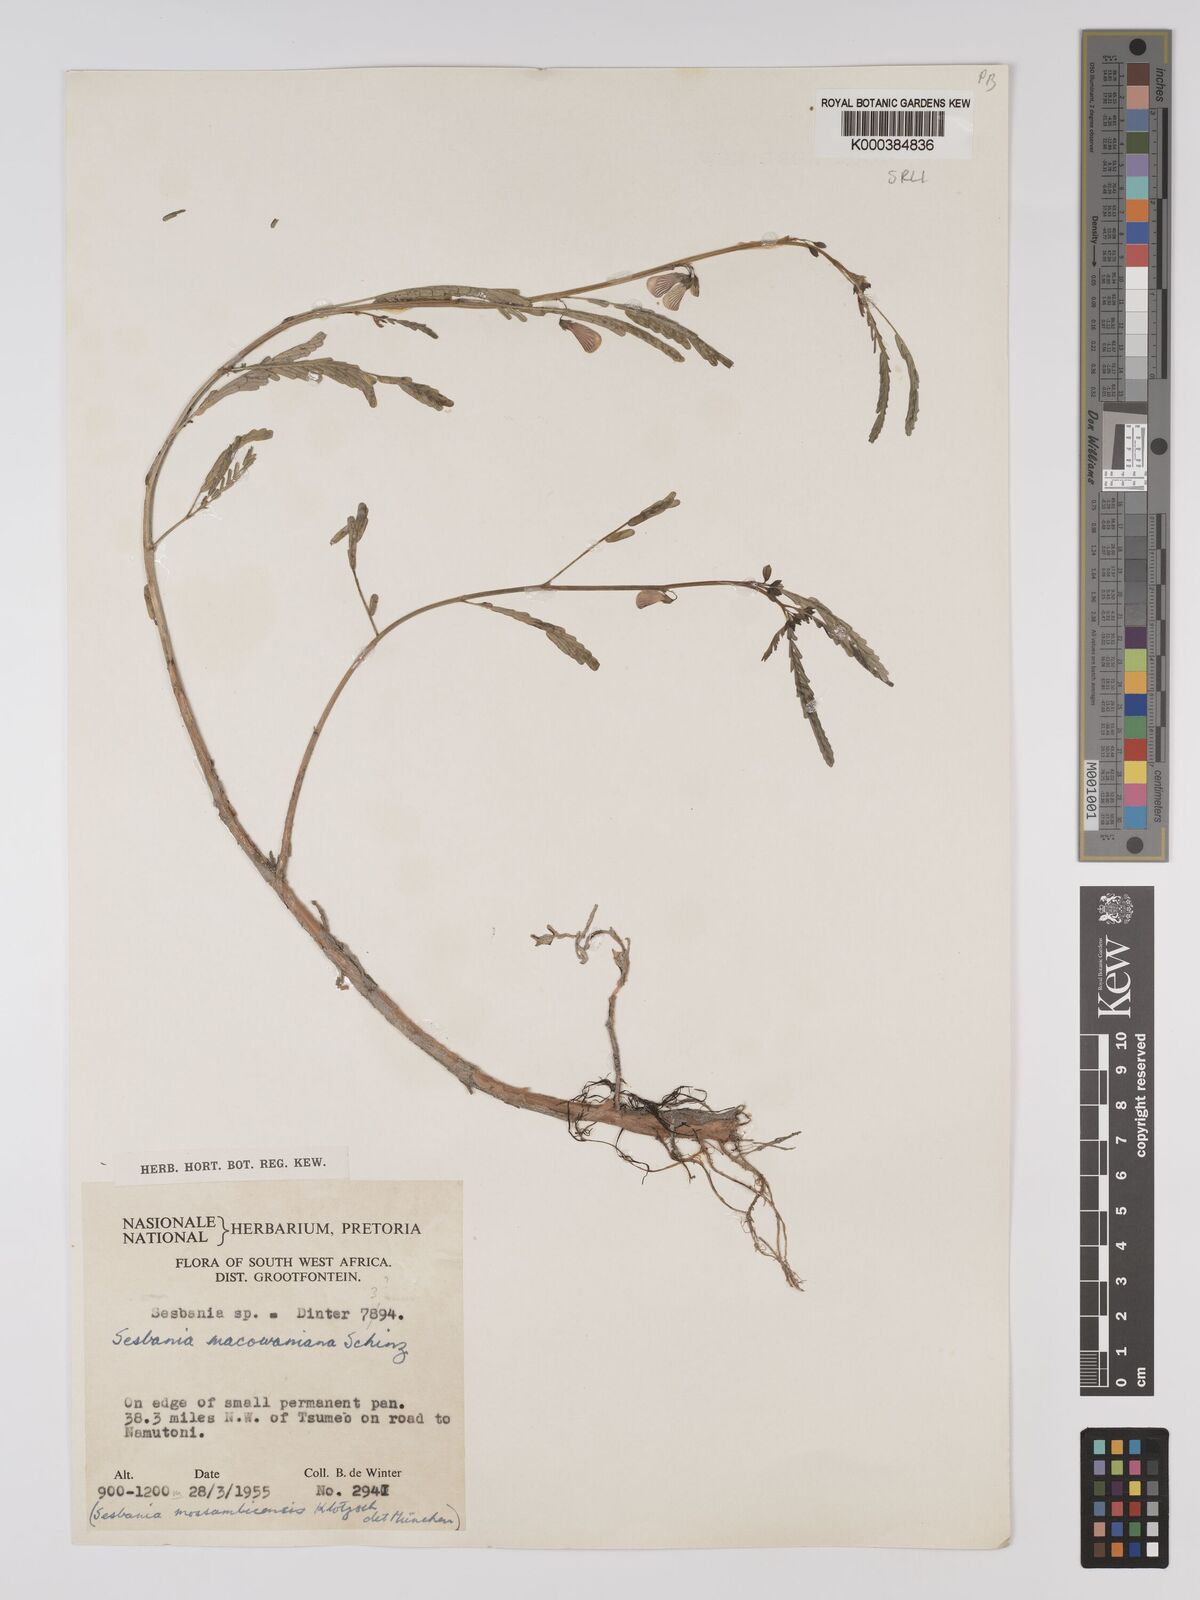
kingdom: Plantae
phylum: Tracheophyta
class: Magnoliopsida
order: Fabales
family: Fabaceae
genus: Sesbania
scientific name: Sesbania macowaniana
